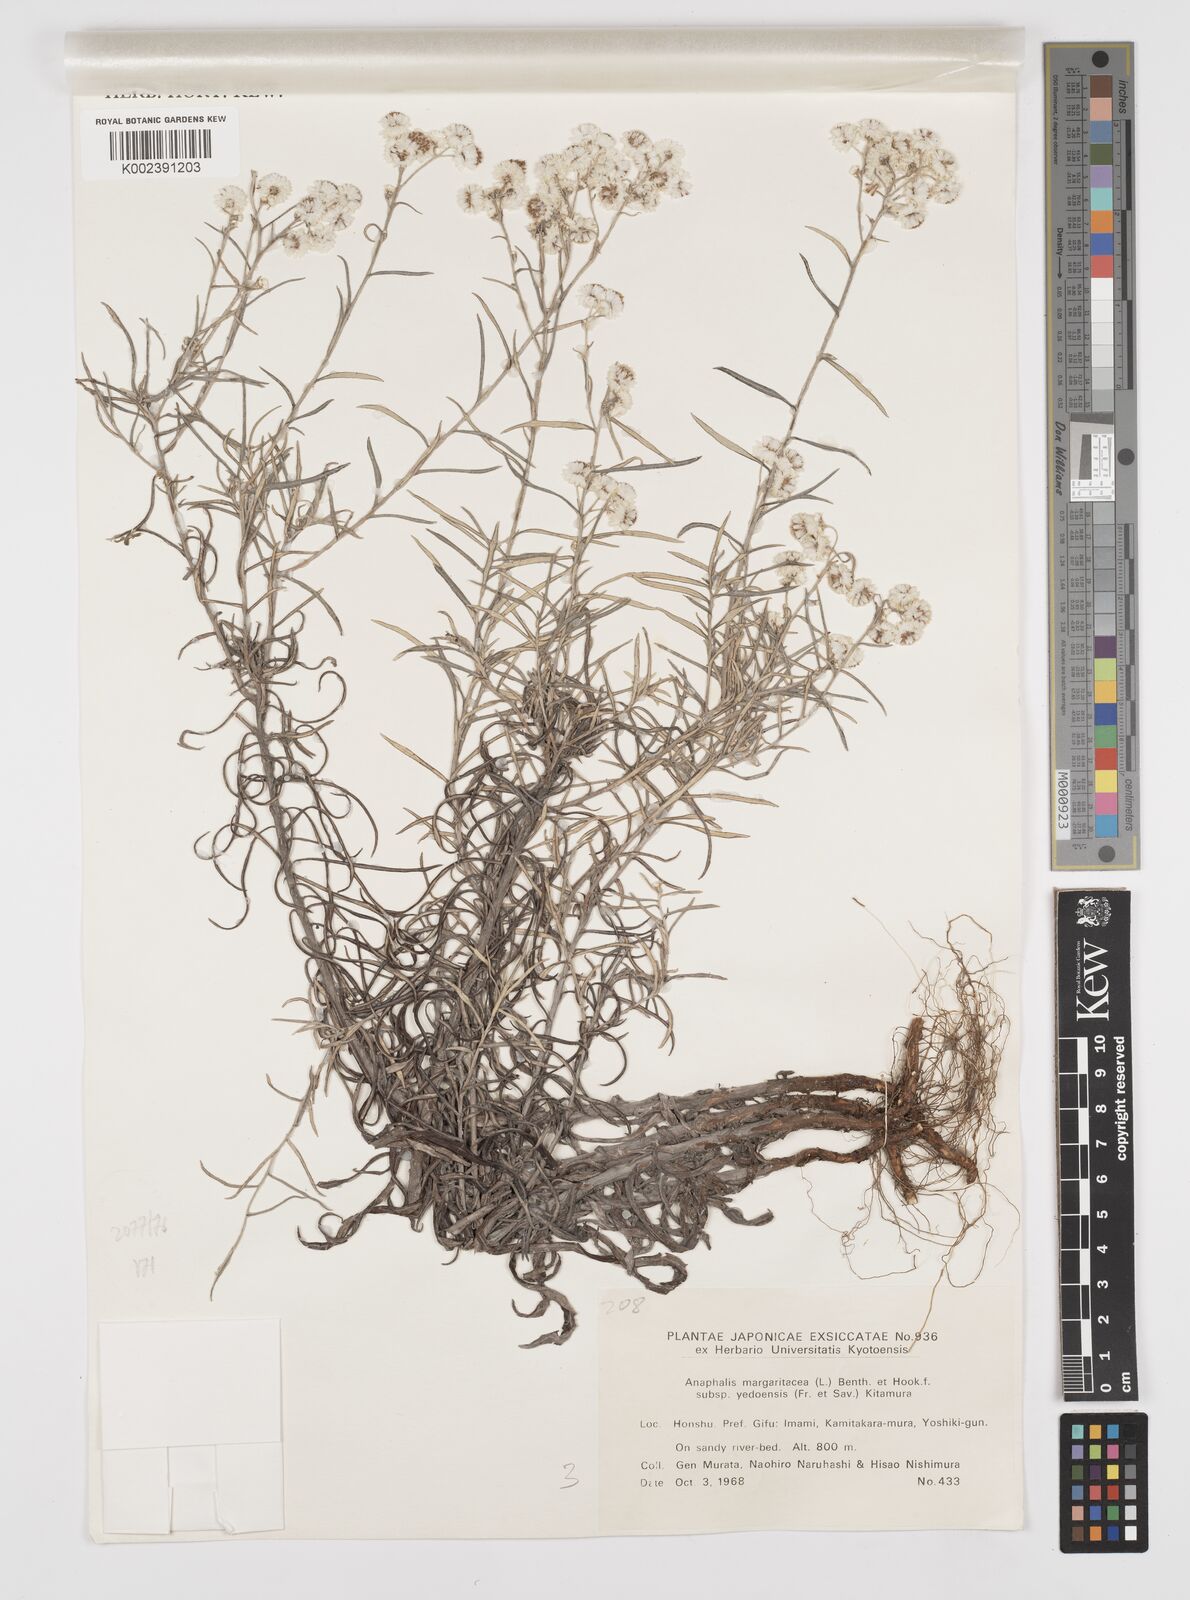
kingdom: Plantae
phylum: Tracheophyta
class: Magnoliopsida
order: Asterales
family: Asteraceae
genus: Anaphalis
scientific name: Anaphalis margaritacea
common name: Pearly everlasting
